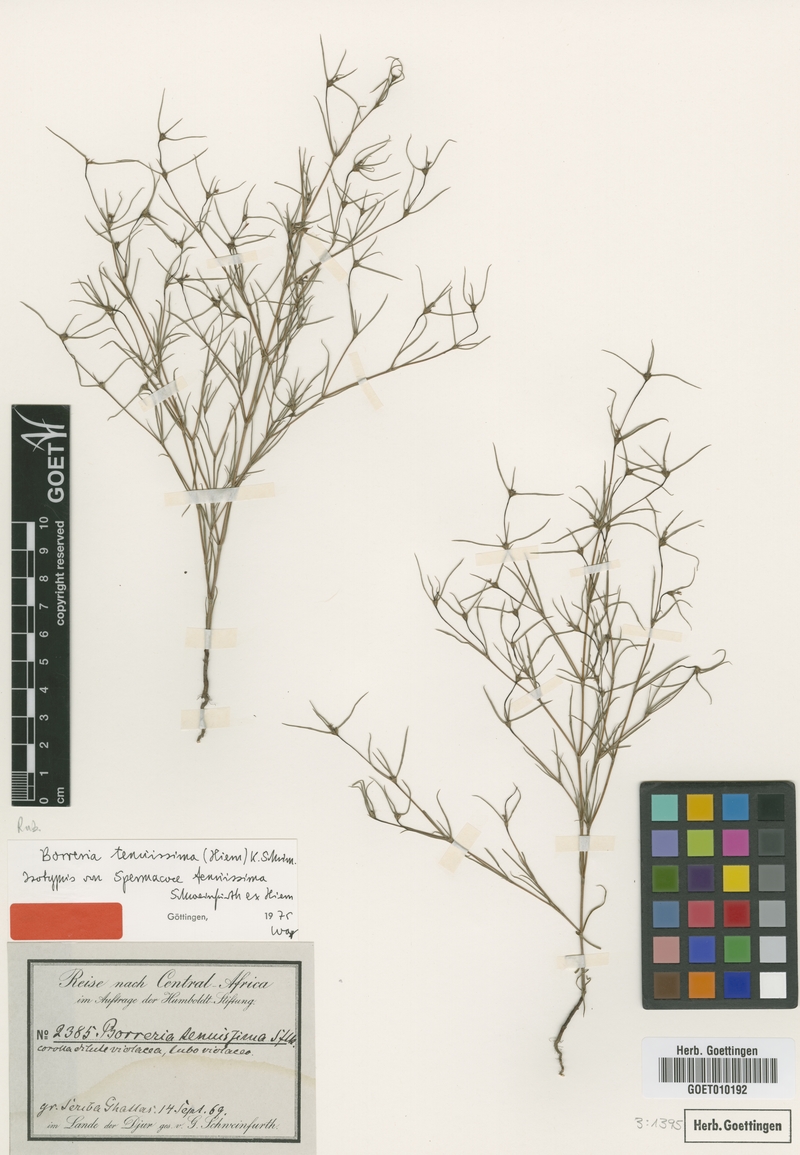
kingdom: Plantae
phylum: Tracheophyta
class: Magnoliopsida
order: Gentianales
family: Rubiaceae
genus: Spermacoce
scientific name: Spermacoce tenuissima
